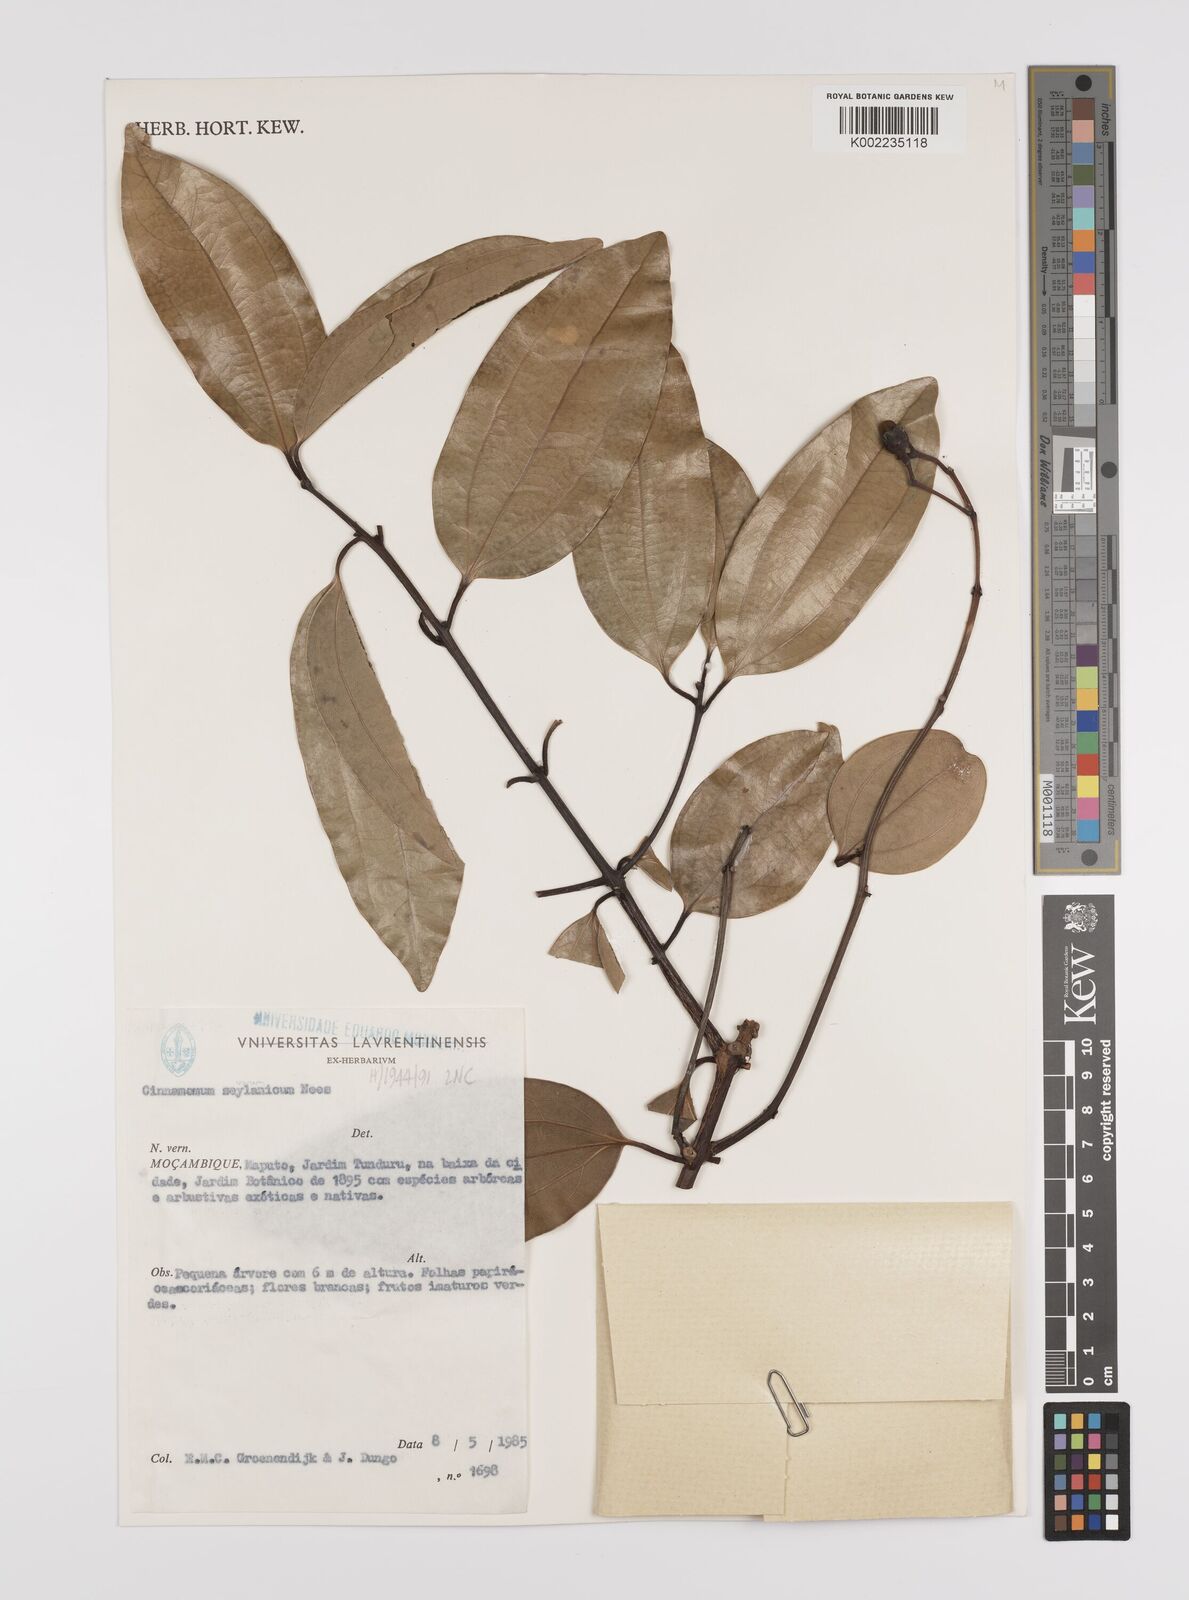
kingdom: Plantae
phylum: Tracheophyta
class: Magnoliopsida
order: Laurales
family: Lauraceae
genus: Cinnamomum
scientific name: Cinnamomum verum
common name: Cinnamon
